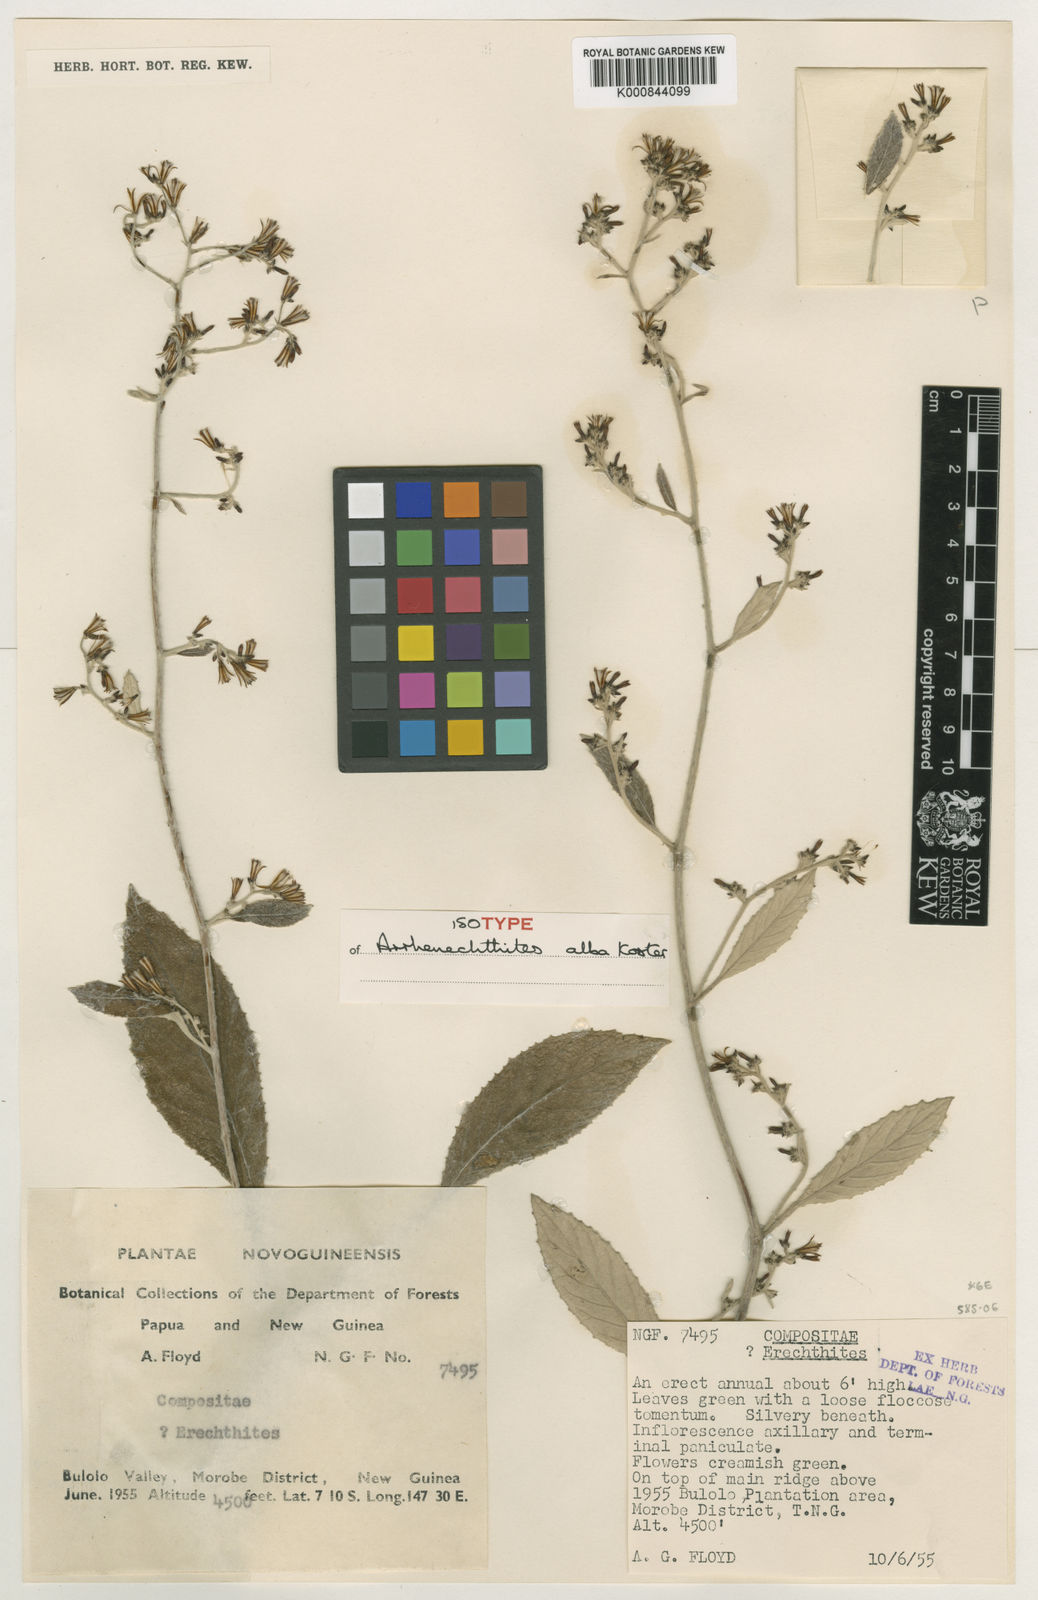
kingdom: Plantae
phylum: Tracheophyta
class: Magnoliopsida
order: Asterales
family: Asteraceae
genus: Arrhenechthites
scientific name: Arrhenechthites albus
